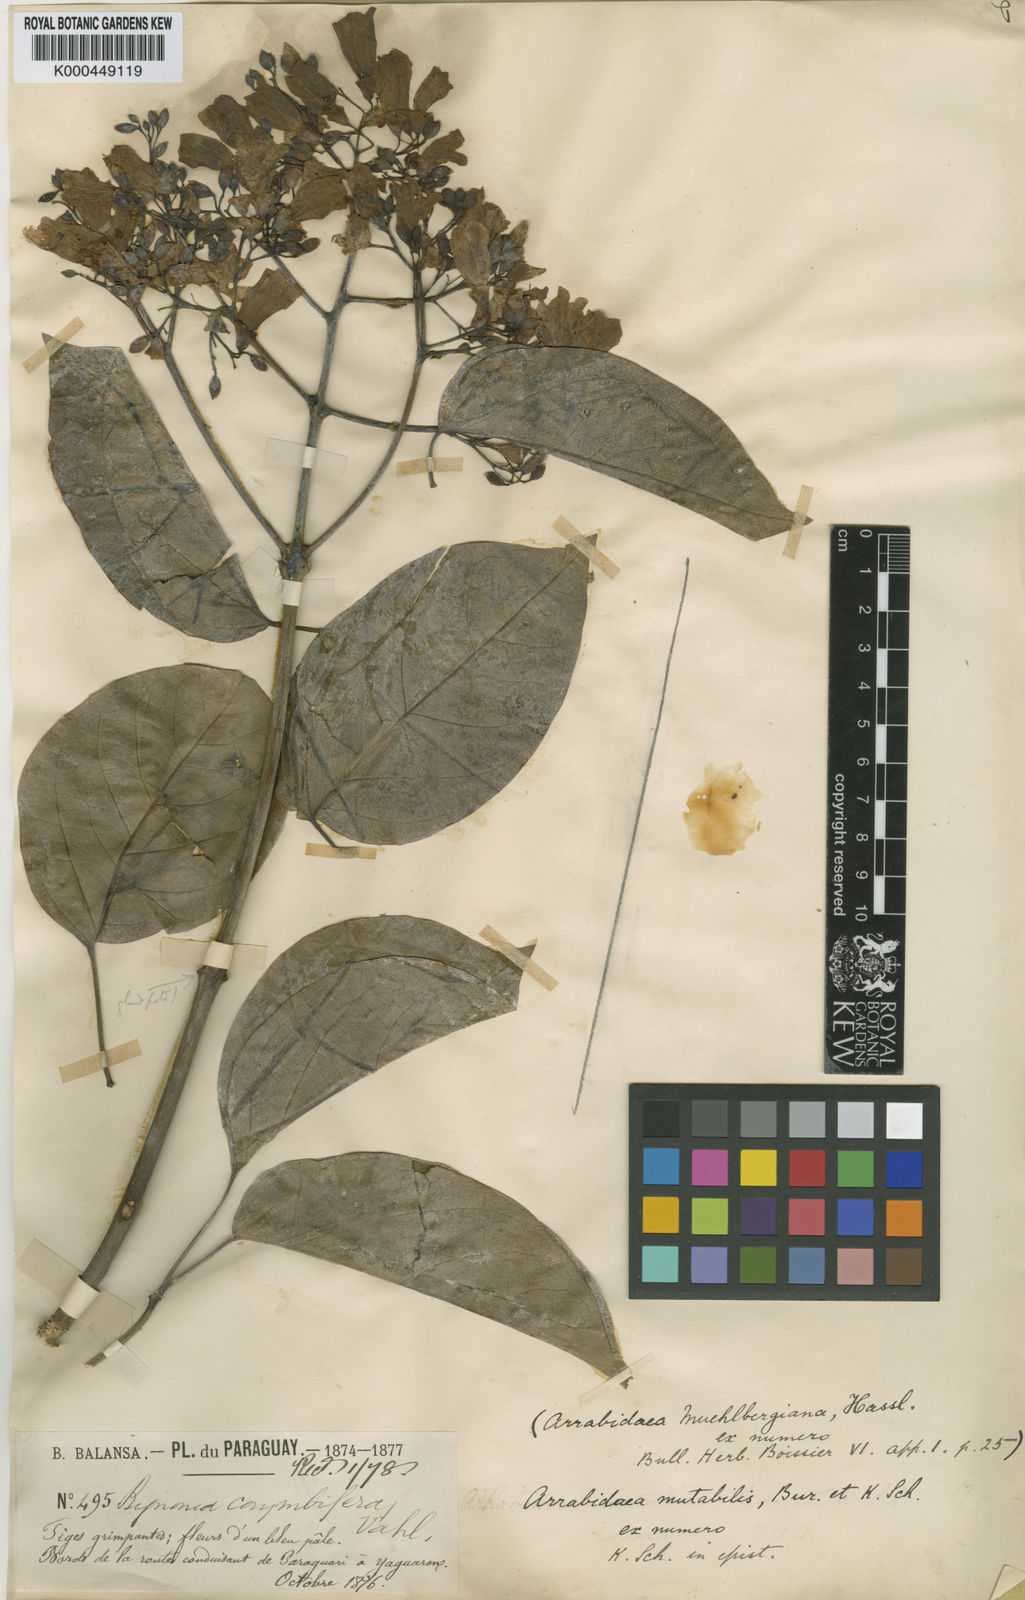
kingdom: Plantae
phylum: Tracheophyta
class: Magnoliopsida
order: Lamiales
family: Bignoniaceae
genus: Fridericia
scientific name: Fridericia mutabilis
